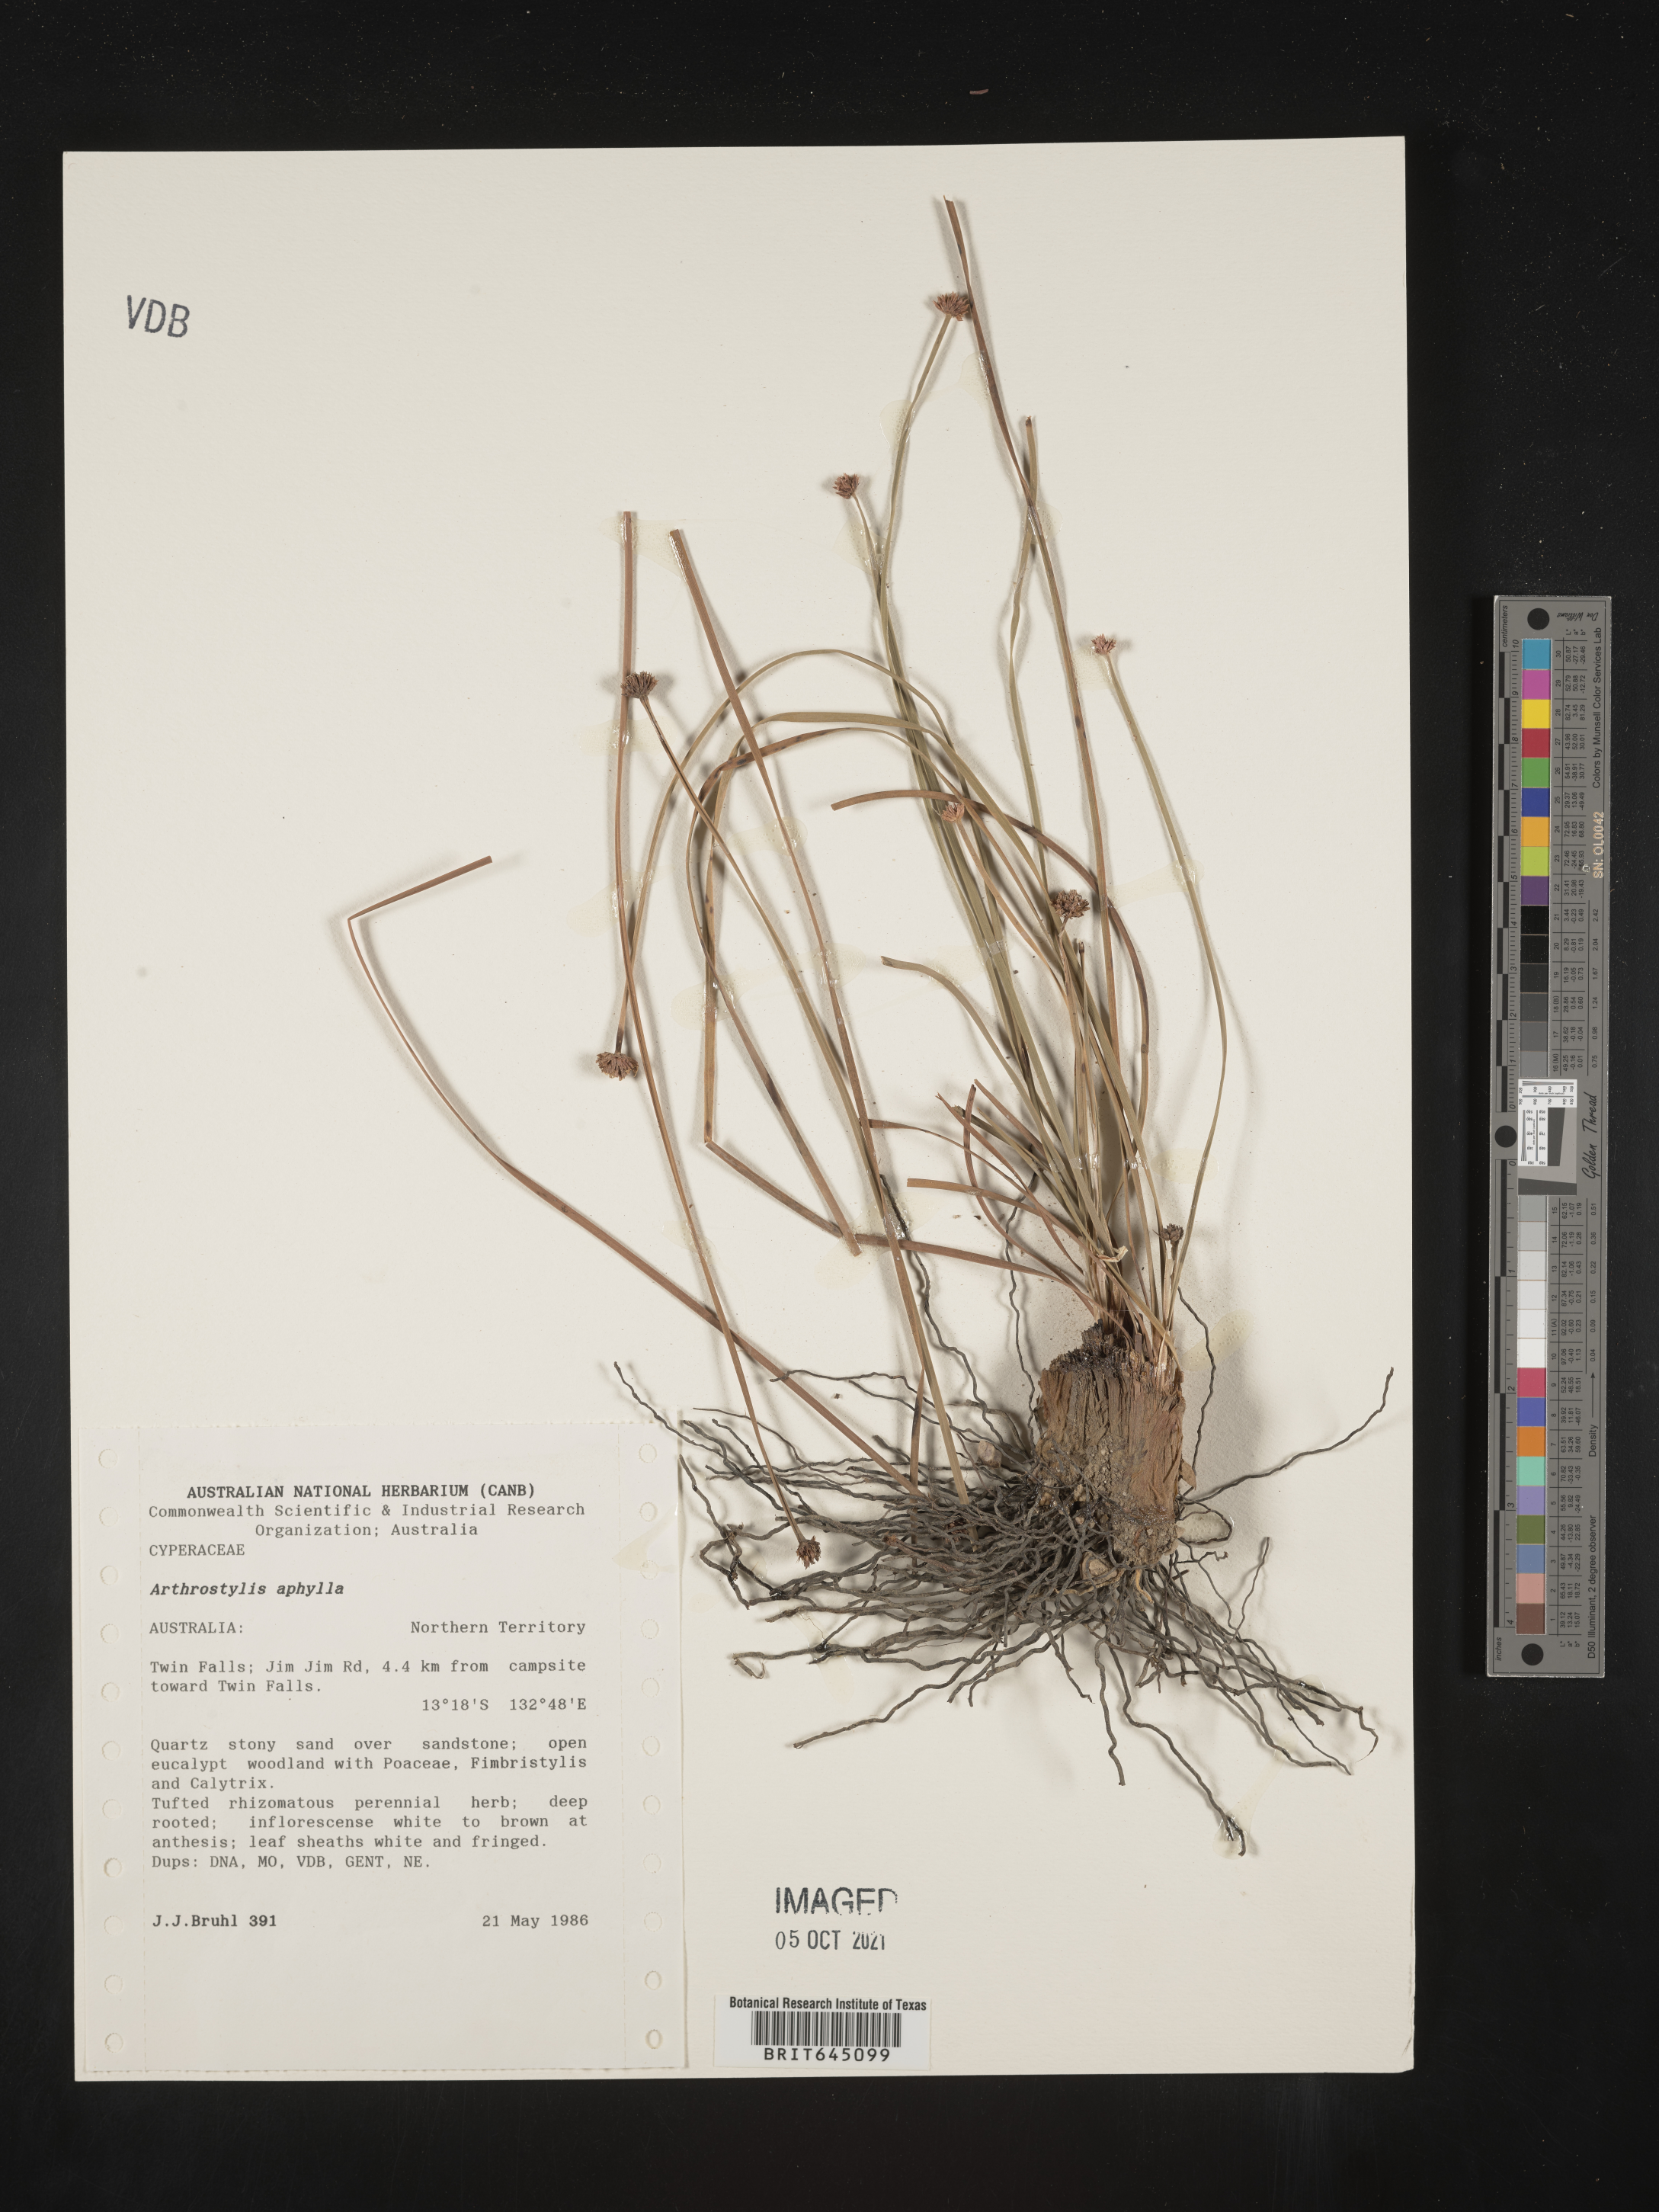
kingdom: Plantae
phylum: Tracheophyta
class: Liliopsida
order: Poales
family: Cyperaceae
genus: Arthrostylis
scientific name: Arthrostylis aphylla
